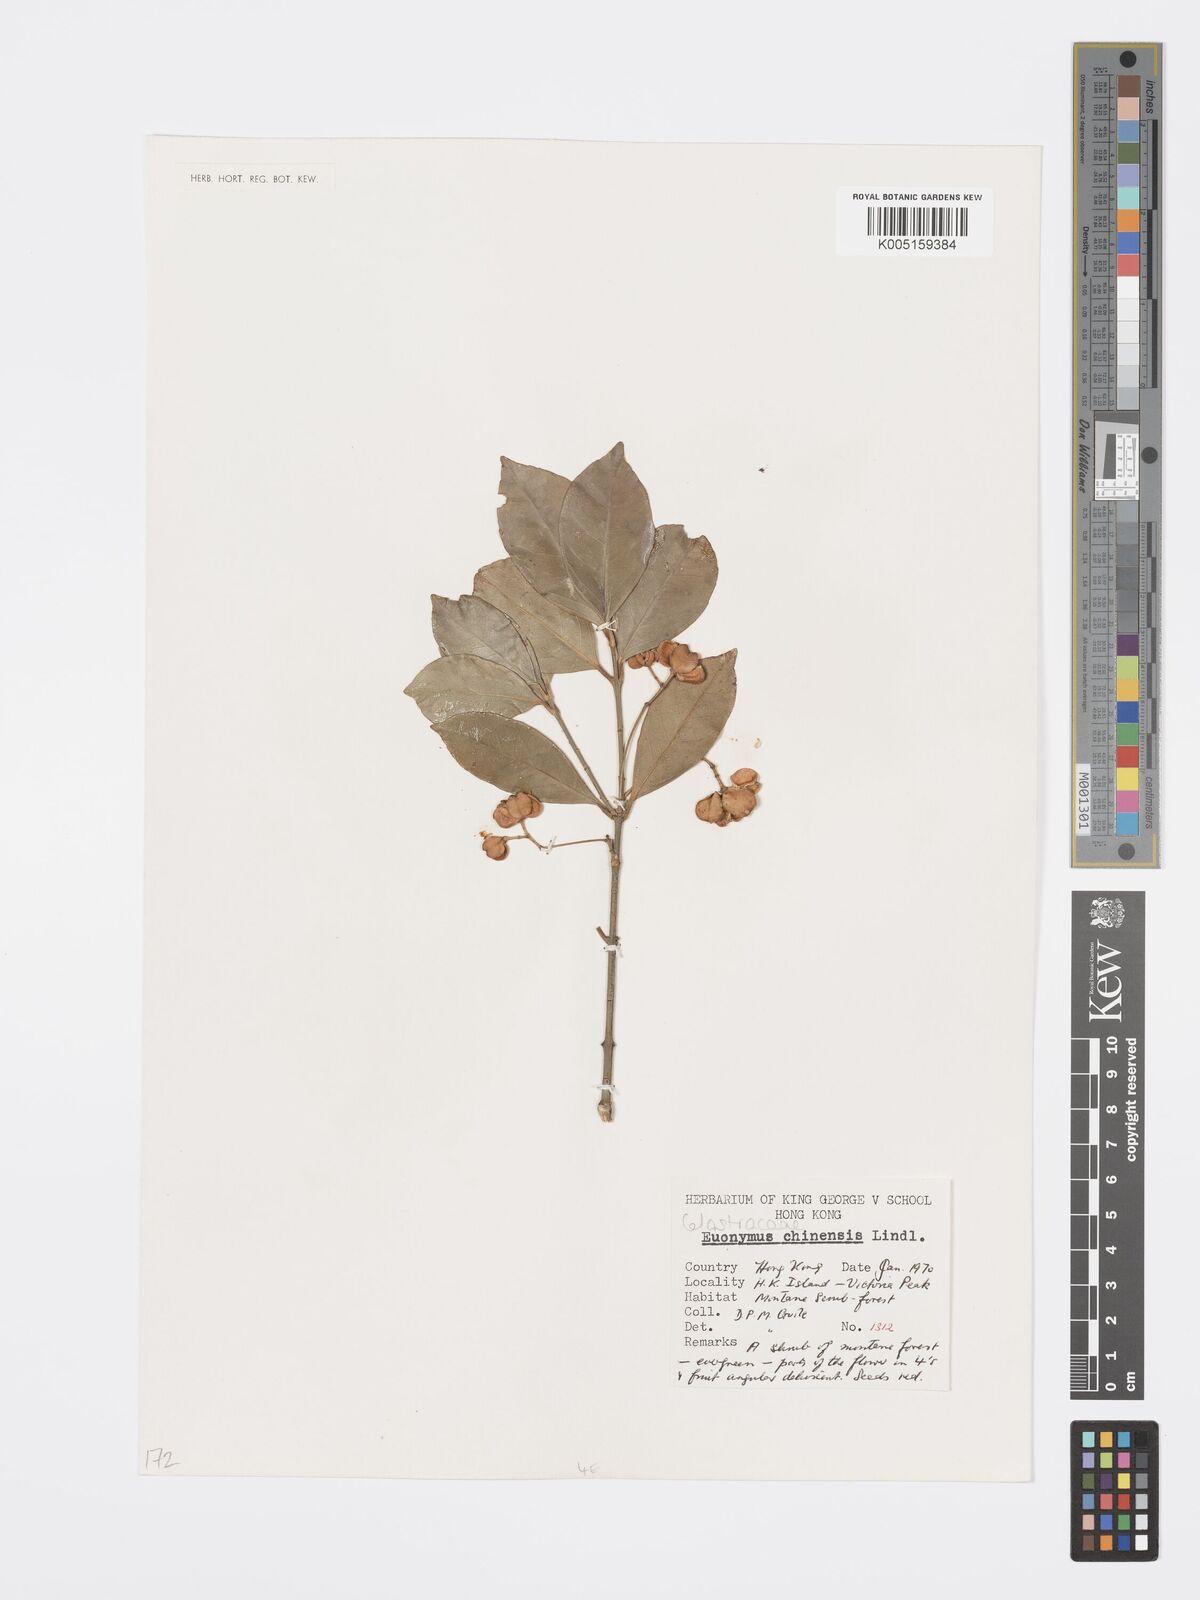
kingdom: Plantae
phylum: Tracheophyta
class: Magnoliopsida
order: Celastrales
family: Celastraceae
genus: Euonymus
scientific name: Euonymus nitidus
